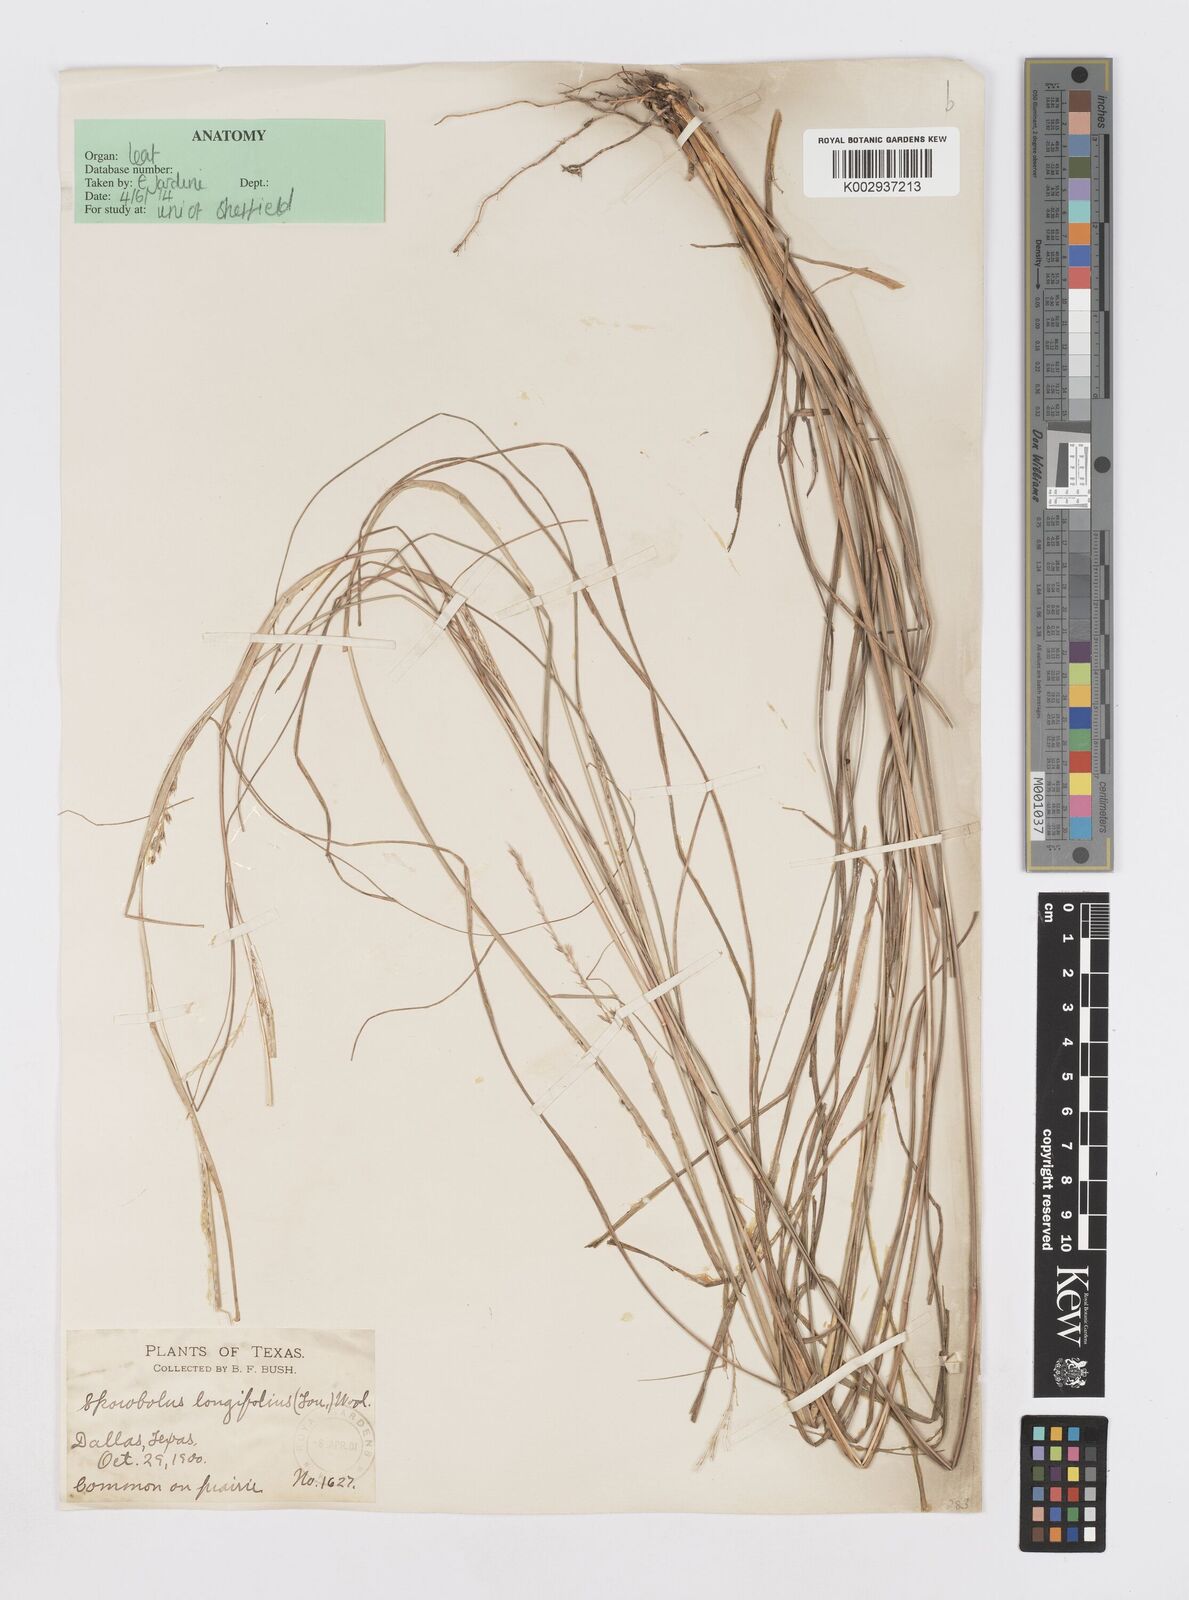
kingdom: Plantae
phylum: Tracheophyta
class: Liliopsida
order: Poales
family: Poaceae
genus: Sporobolus
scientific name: Sporobolus compositus
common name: Rough dropseed
